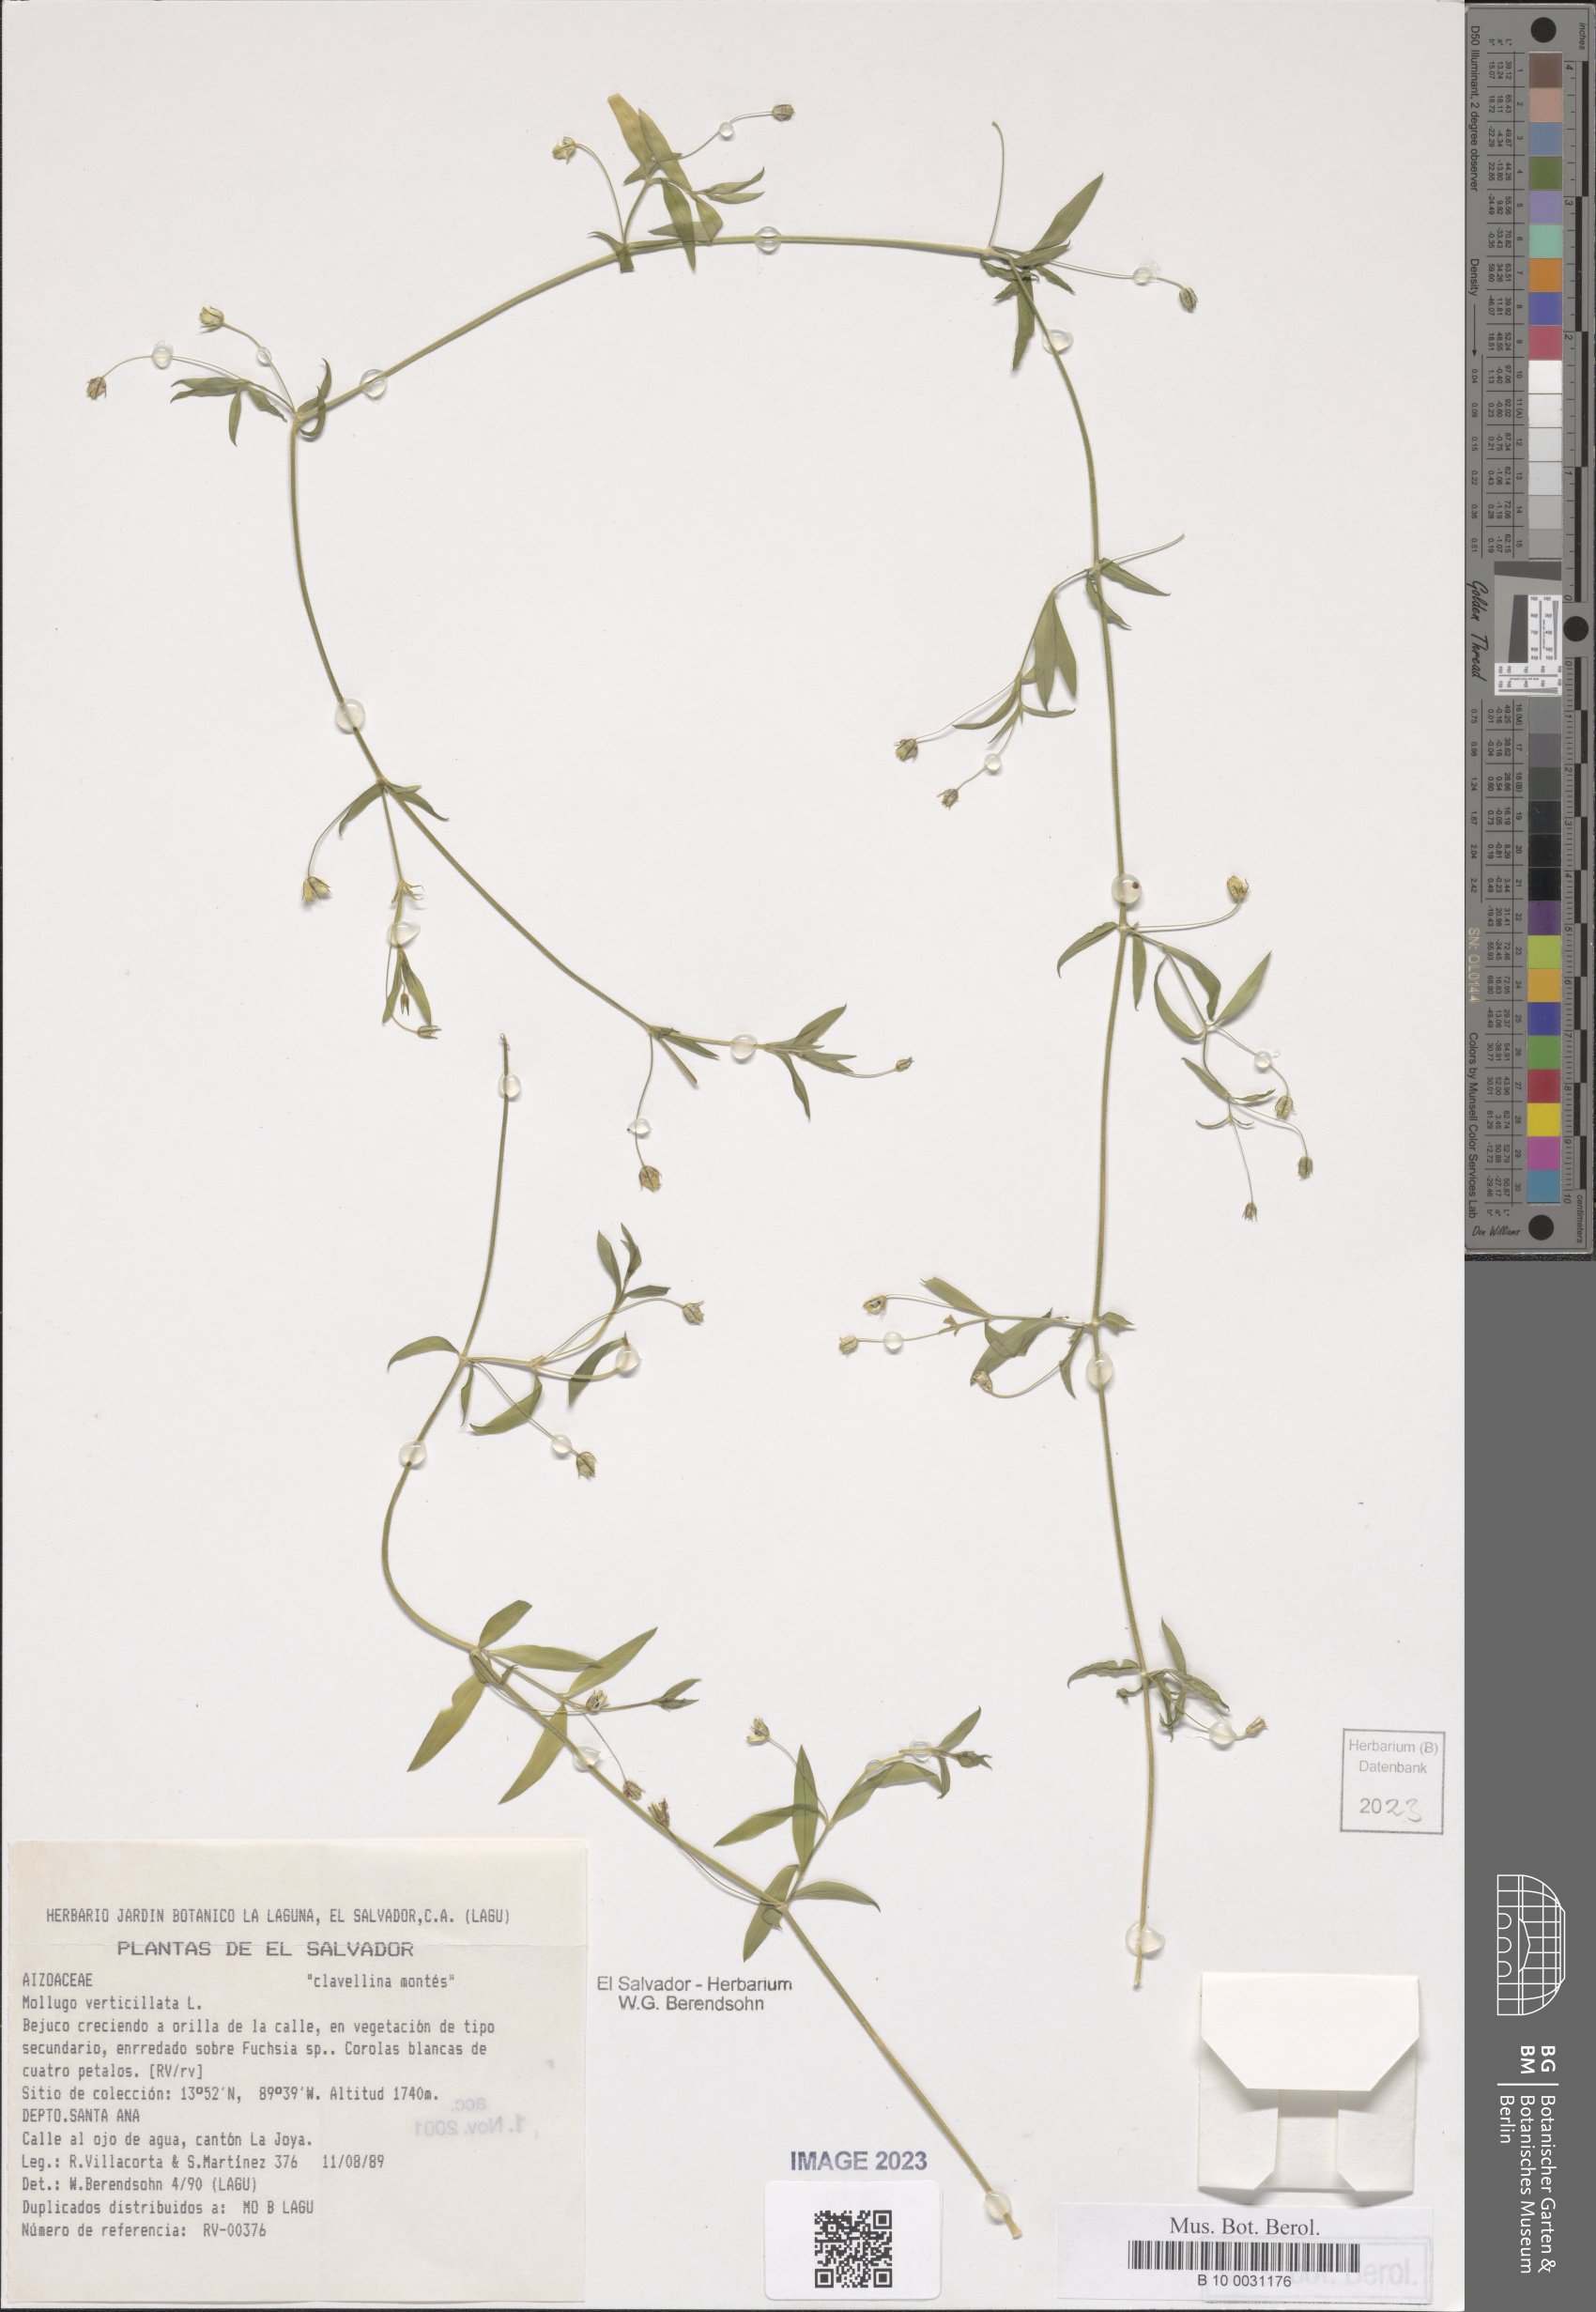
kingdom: Plantae
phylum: Tracheophyta
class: Magnoliopsida
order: Caryophyllales
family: Molluginaceae
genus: Mollugo
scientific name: Mollugo verticillata
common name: Green carpetweed
